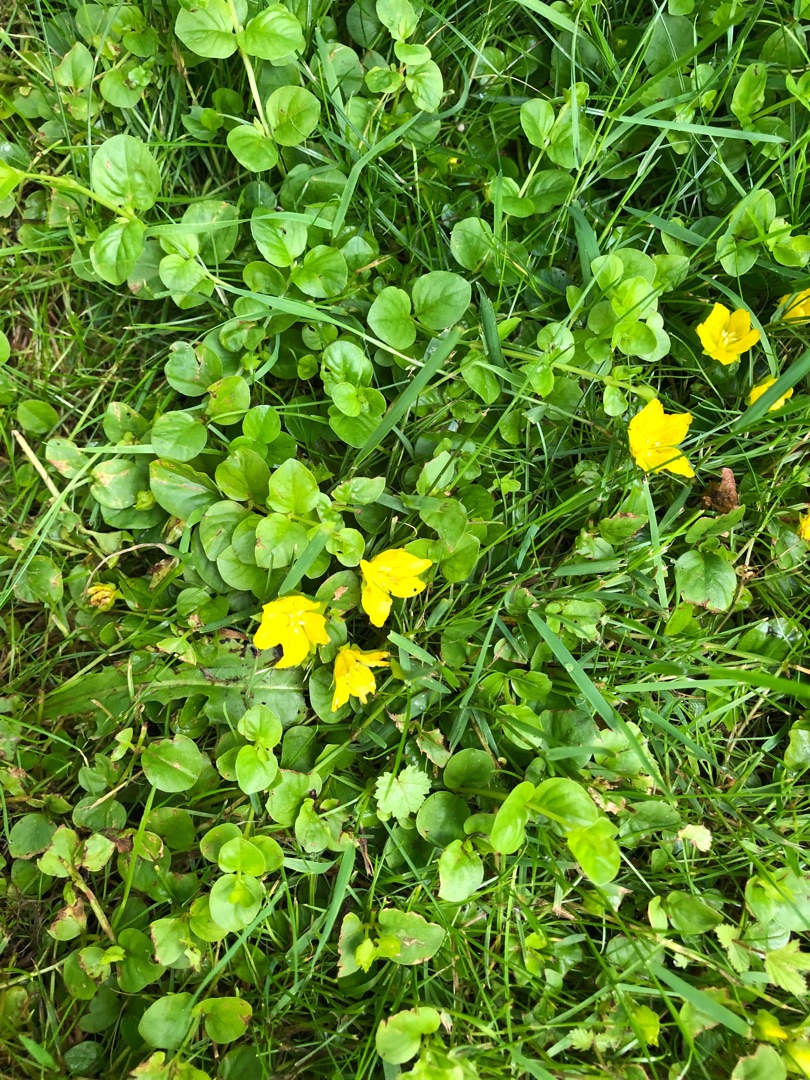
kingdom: Plantae
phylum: Tracheophyta
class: Magnoliopsida
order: Ericales
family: Primulaceae
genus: Lysimachia
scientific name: Lysimachia nummularia
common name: Pengebladet fredløs
